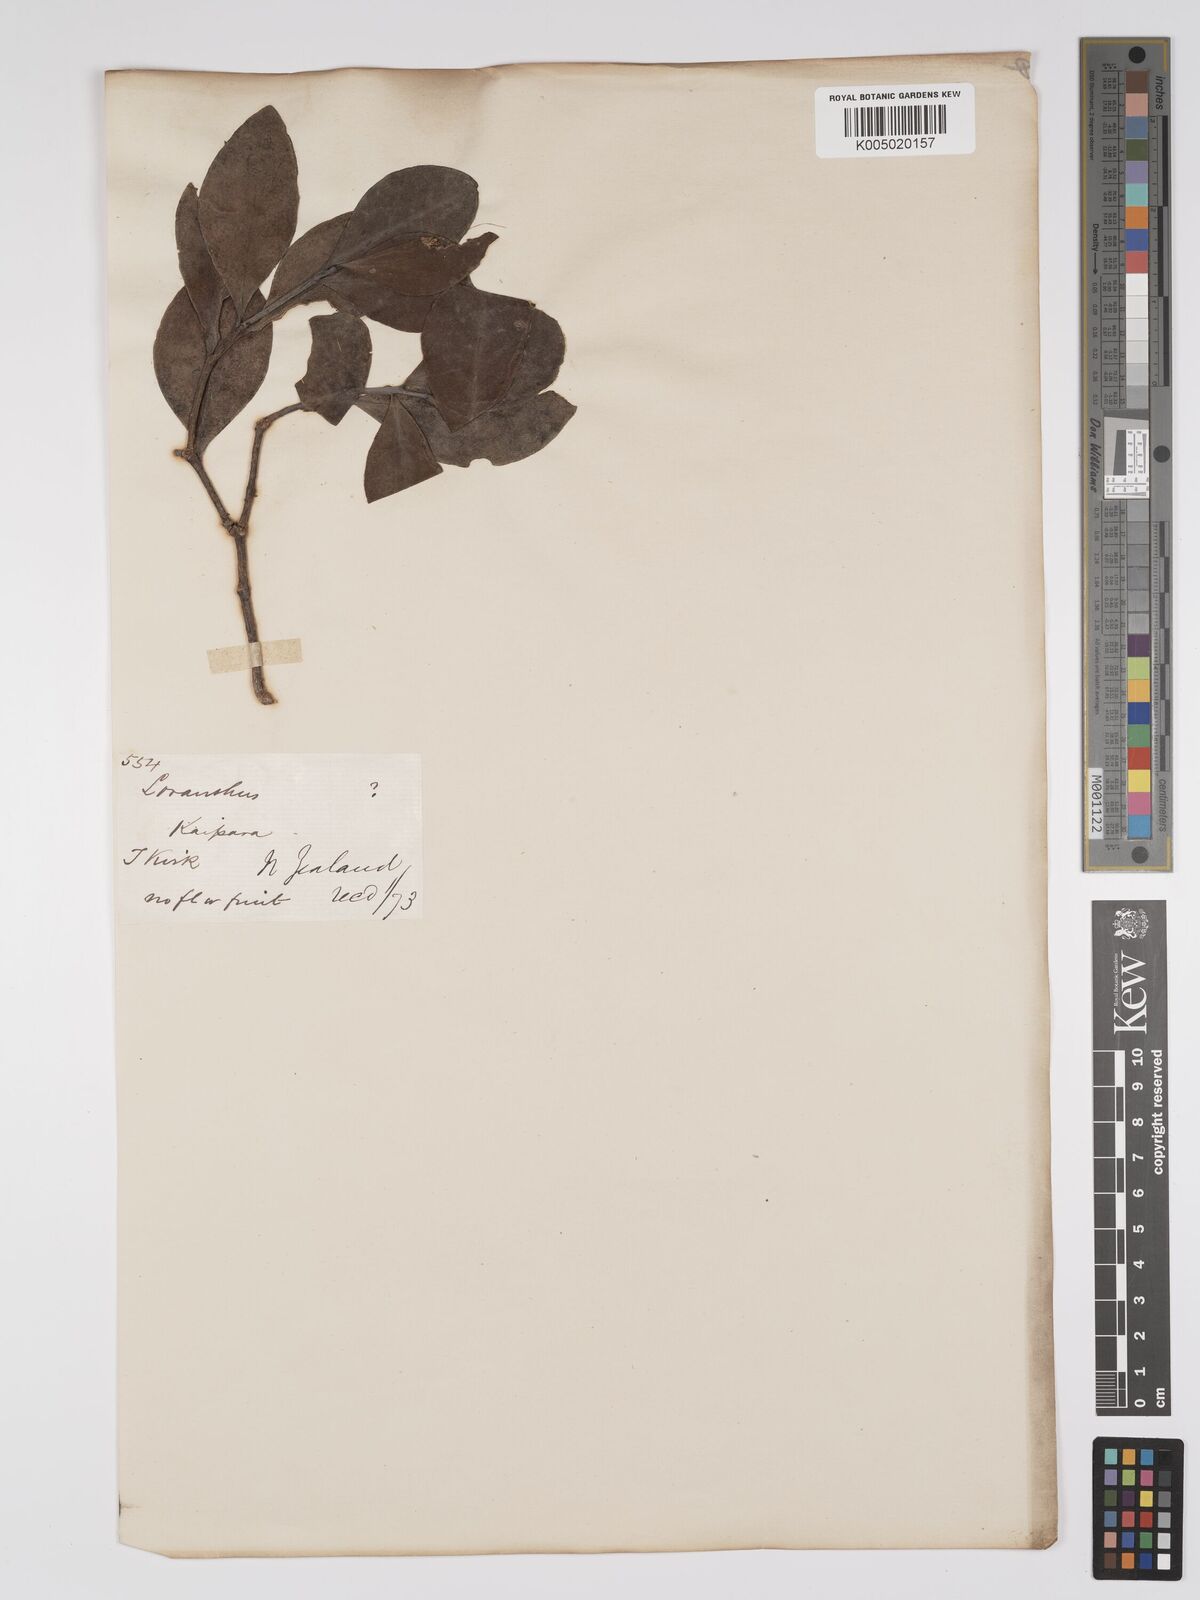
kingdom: Plantae
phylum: Tracheophyta
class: Magnoliopsida
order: Santalales
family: Loranthaceae
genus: Ileostylus
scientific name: Ileostylus
